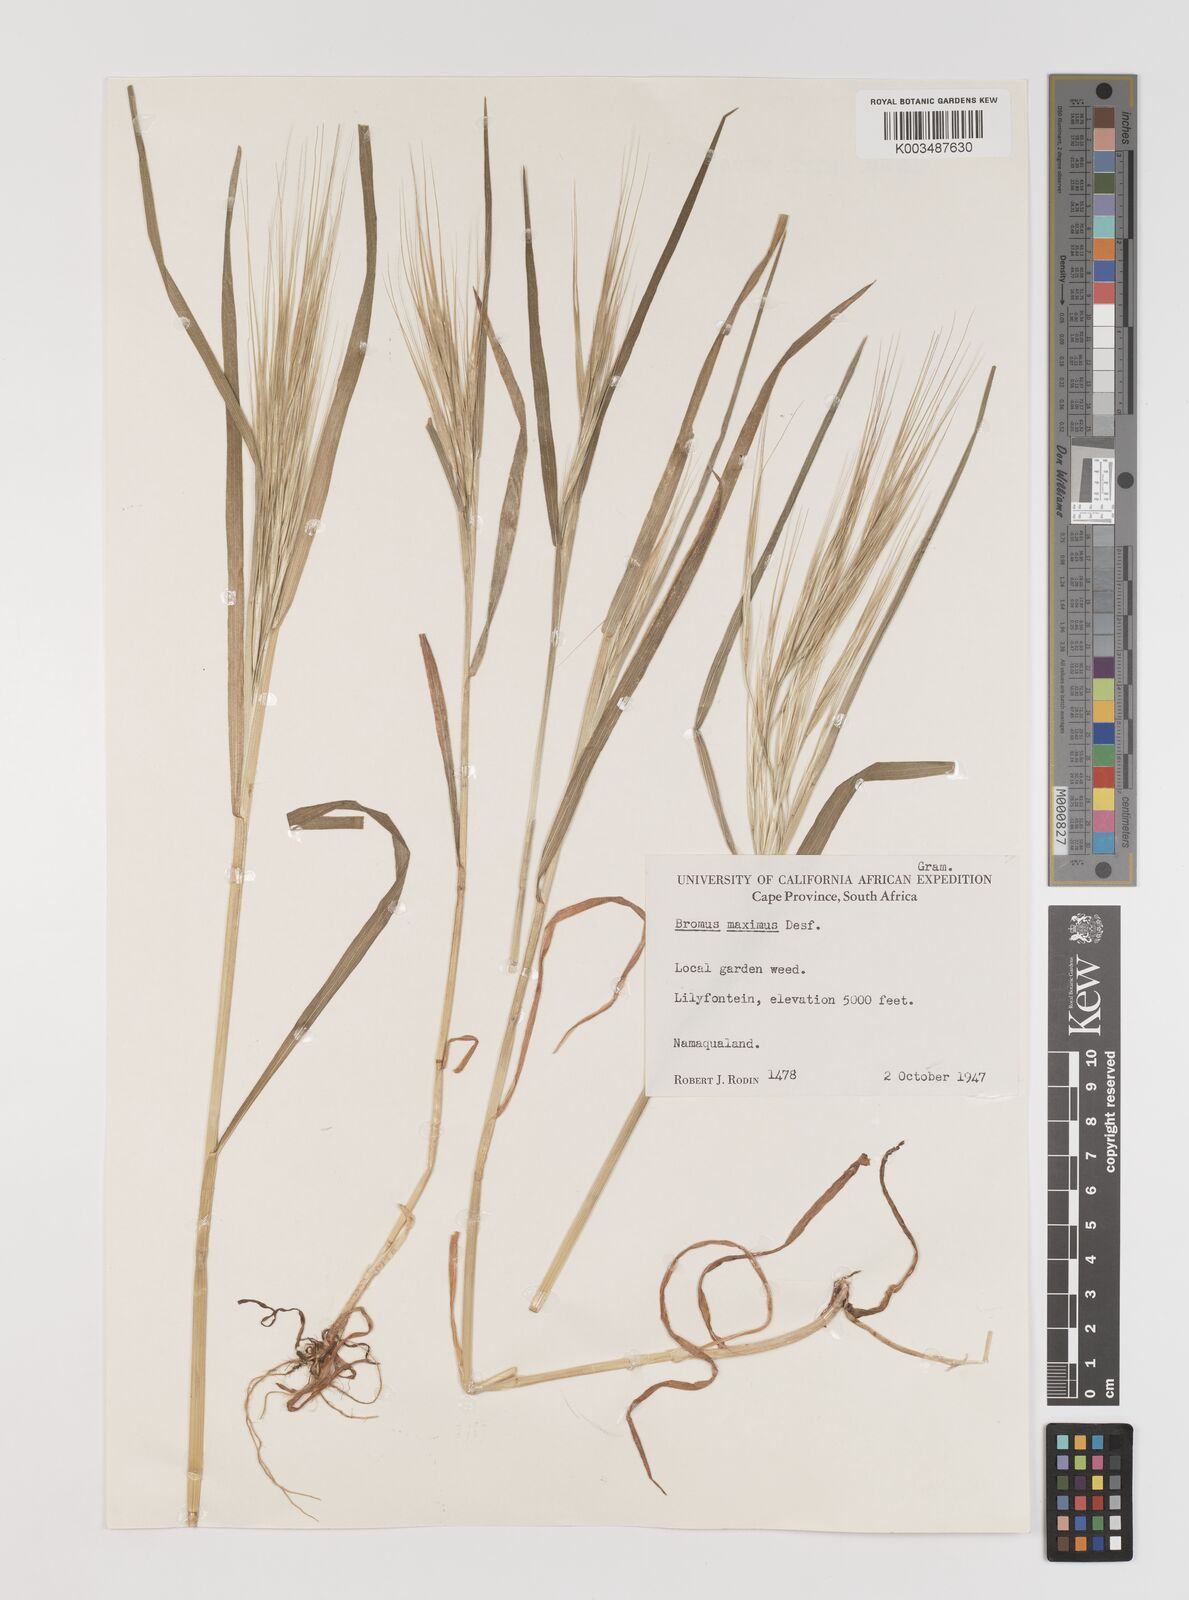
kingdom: Plantae
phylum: Tracheophyta
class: Liliopsida
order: Poales
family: Poaceae
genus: Bromus
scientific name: Bromus diandrus
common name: Ripgut brome
